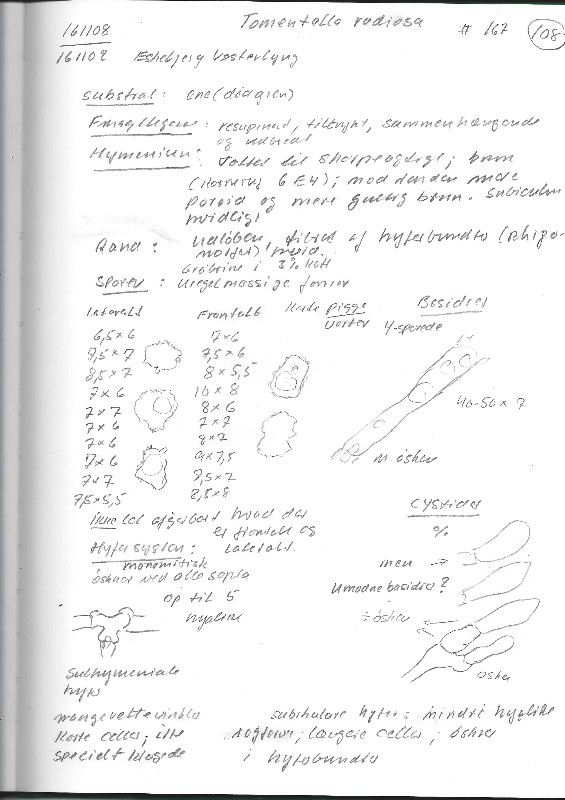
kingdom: Fungi
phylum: Basidiomycota
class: Agaricomycetes
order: Thelephorales
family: Thelephoraceae
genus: Thelephora
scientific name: Thelephora terrestris
